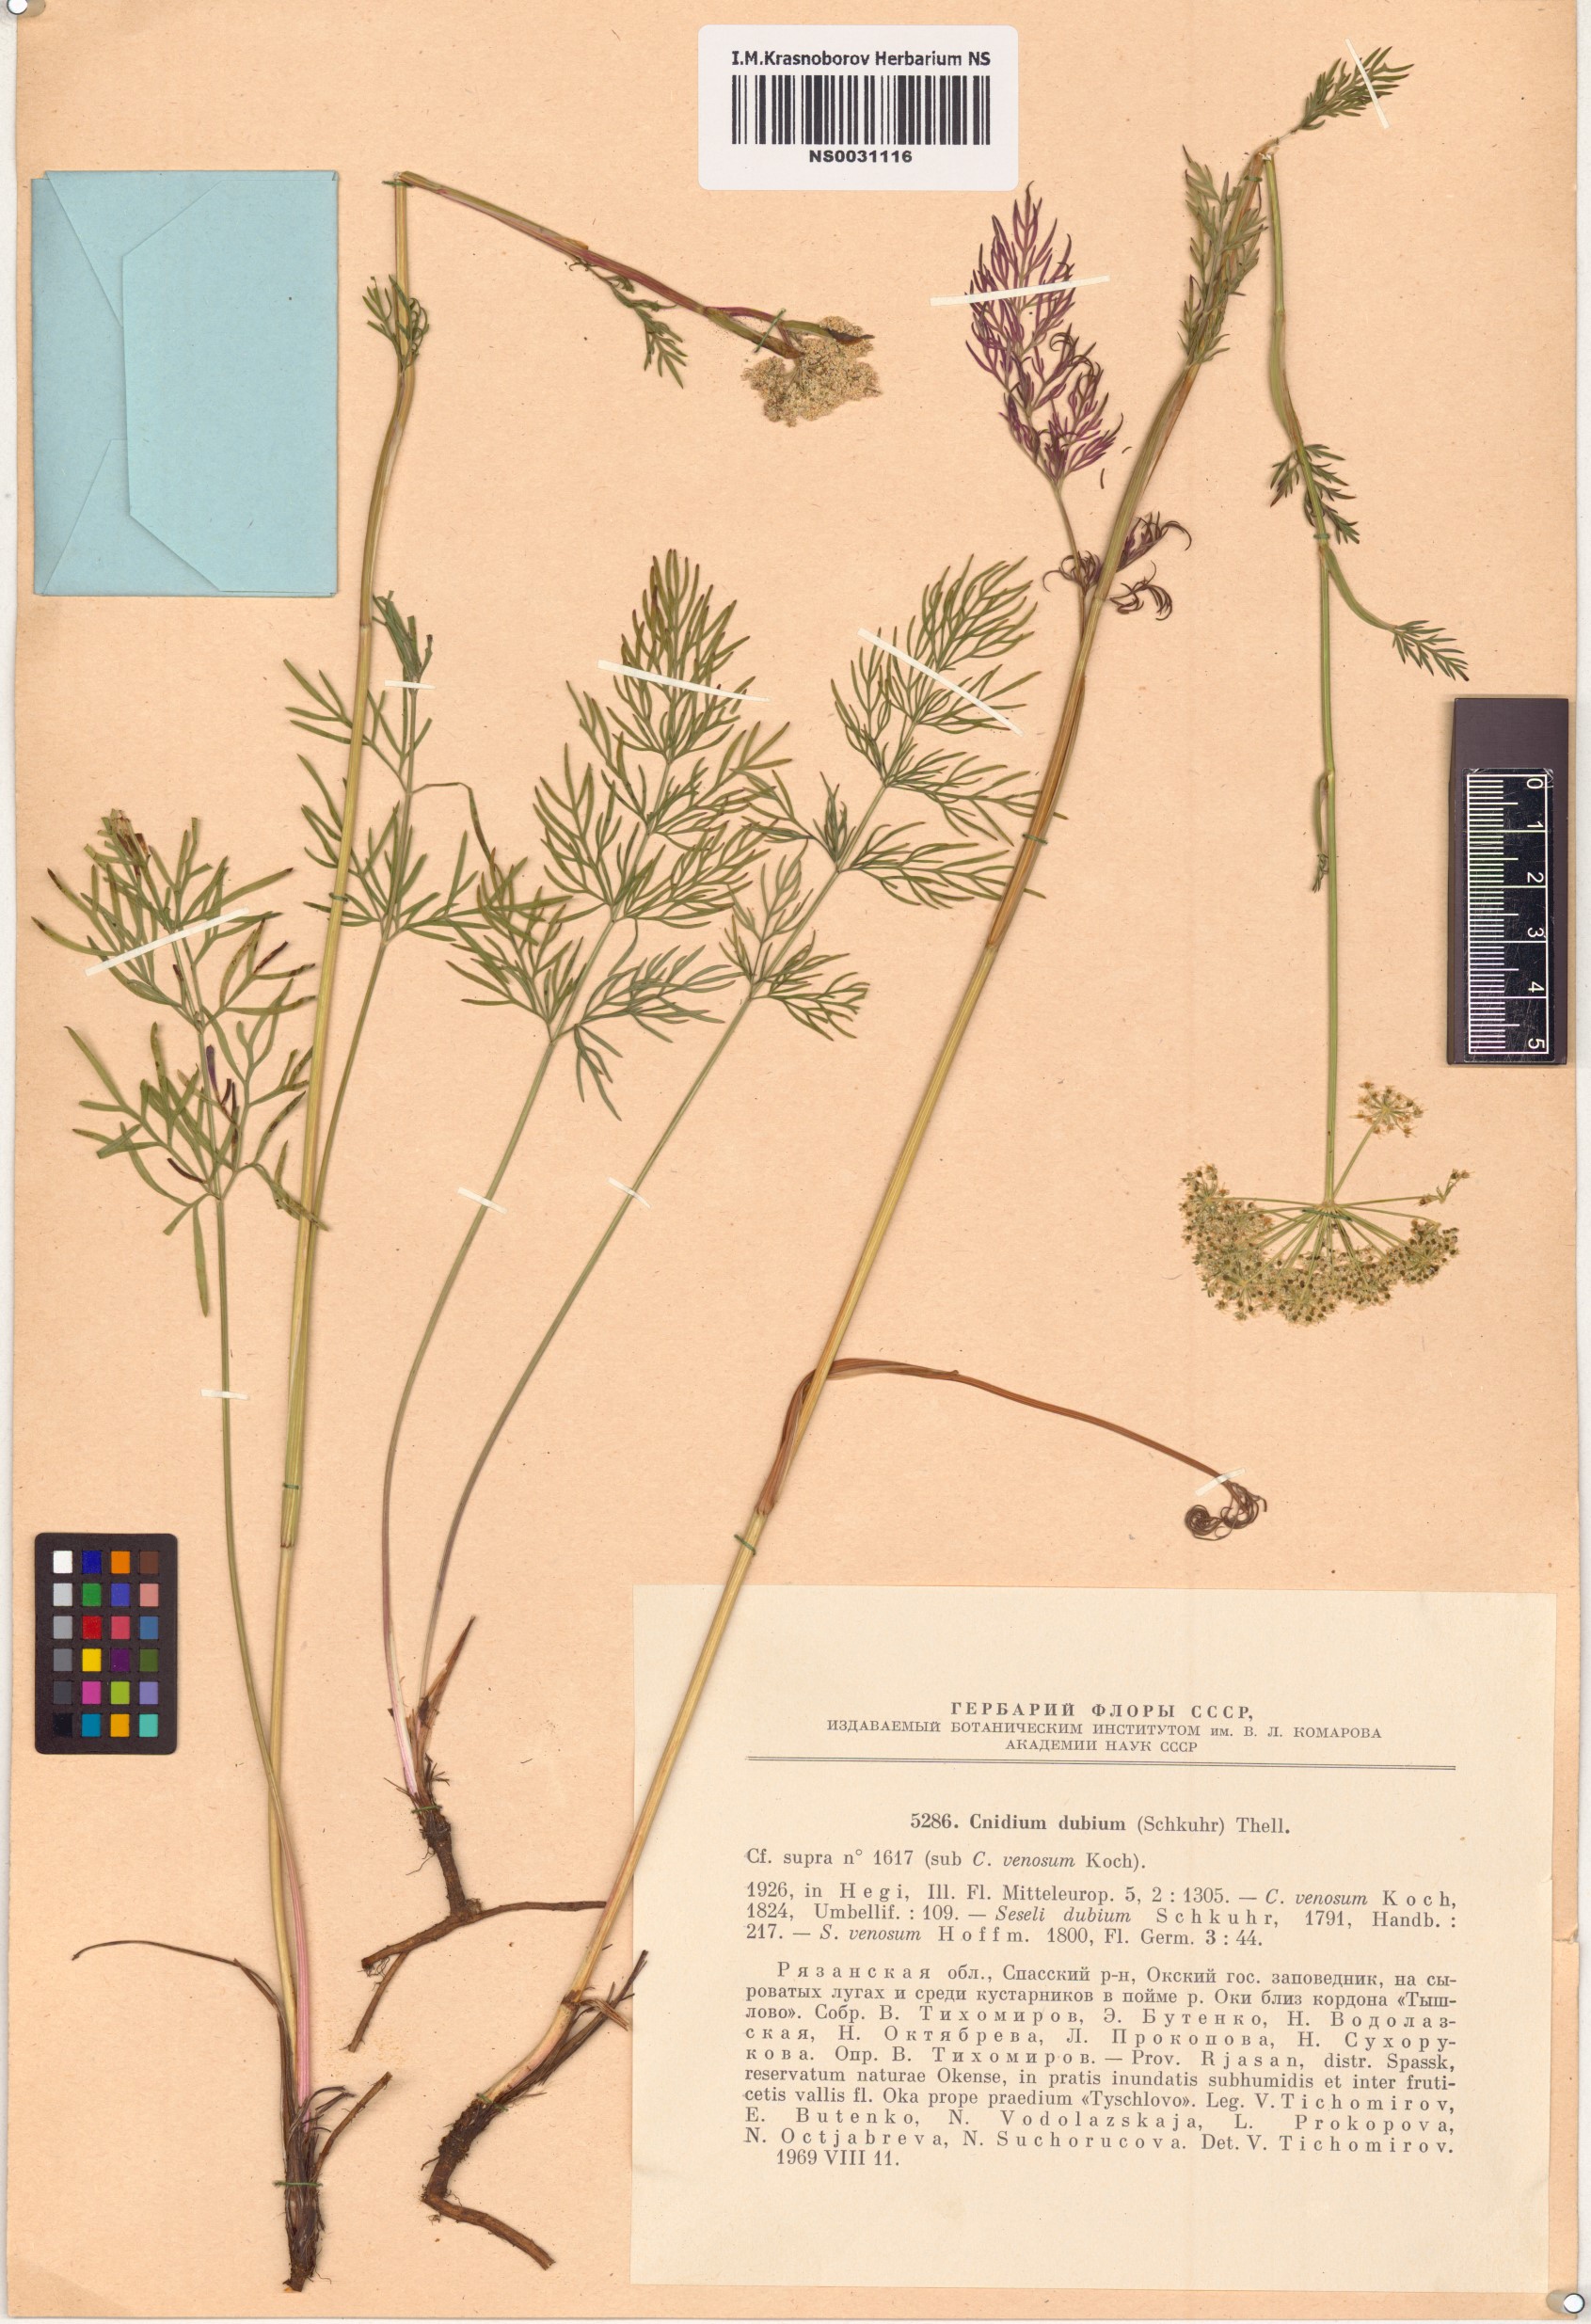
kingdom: Plantae
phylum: Tracheophyta
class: Magnoliopsida
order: Apiales
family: Apiaceae
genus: Kadenia
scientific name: Kadenia dubia
